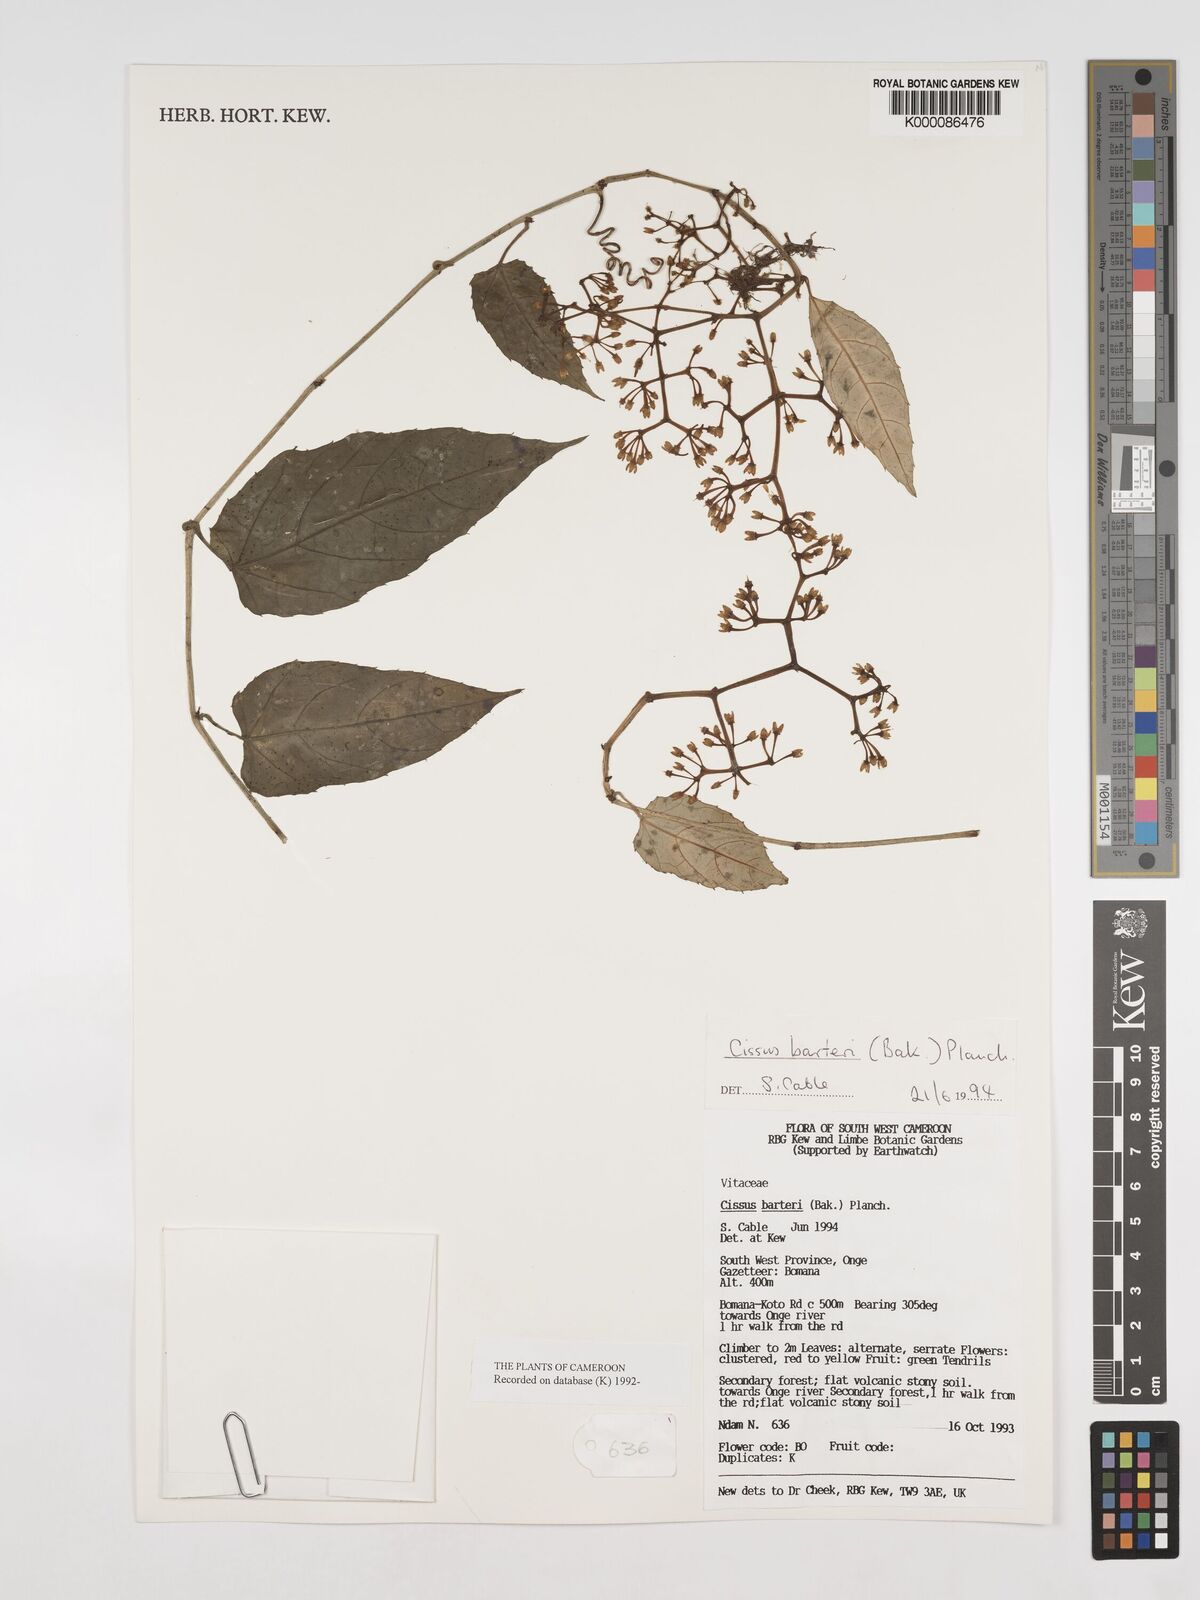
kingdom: Plantae
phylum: Tracheophyta
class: Magnoliopsida
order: Vitales
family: Vitaceae
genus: Cissus
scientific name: Cissus barteri
